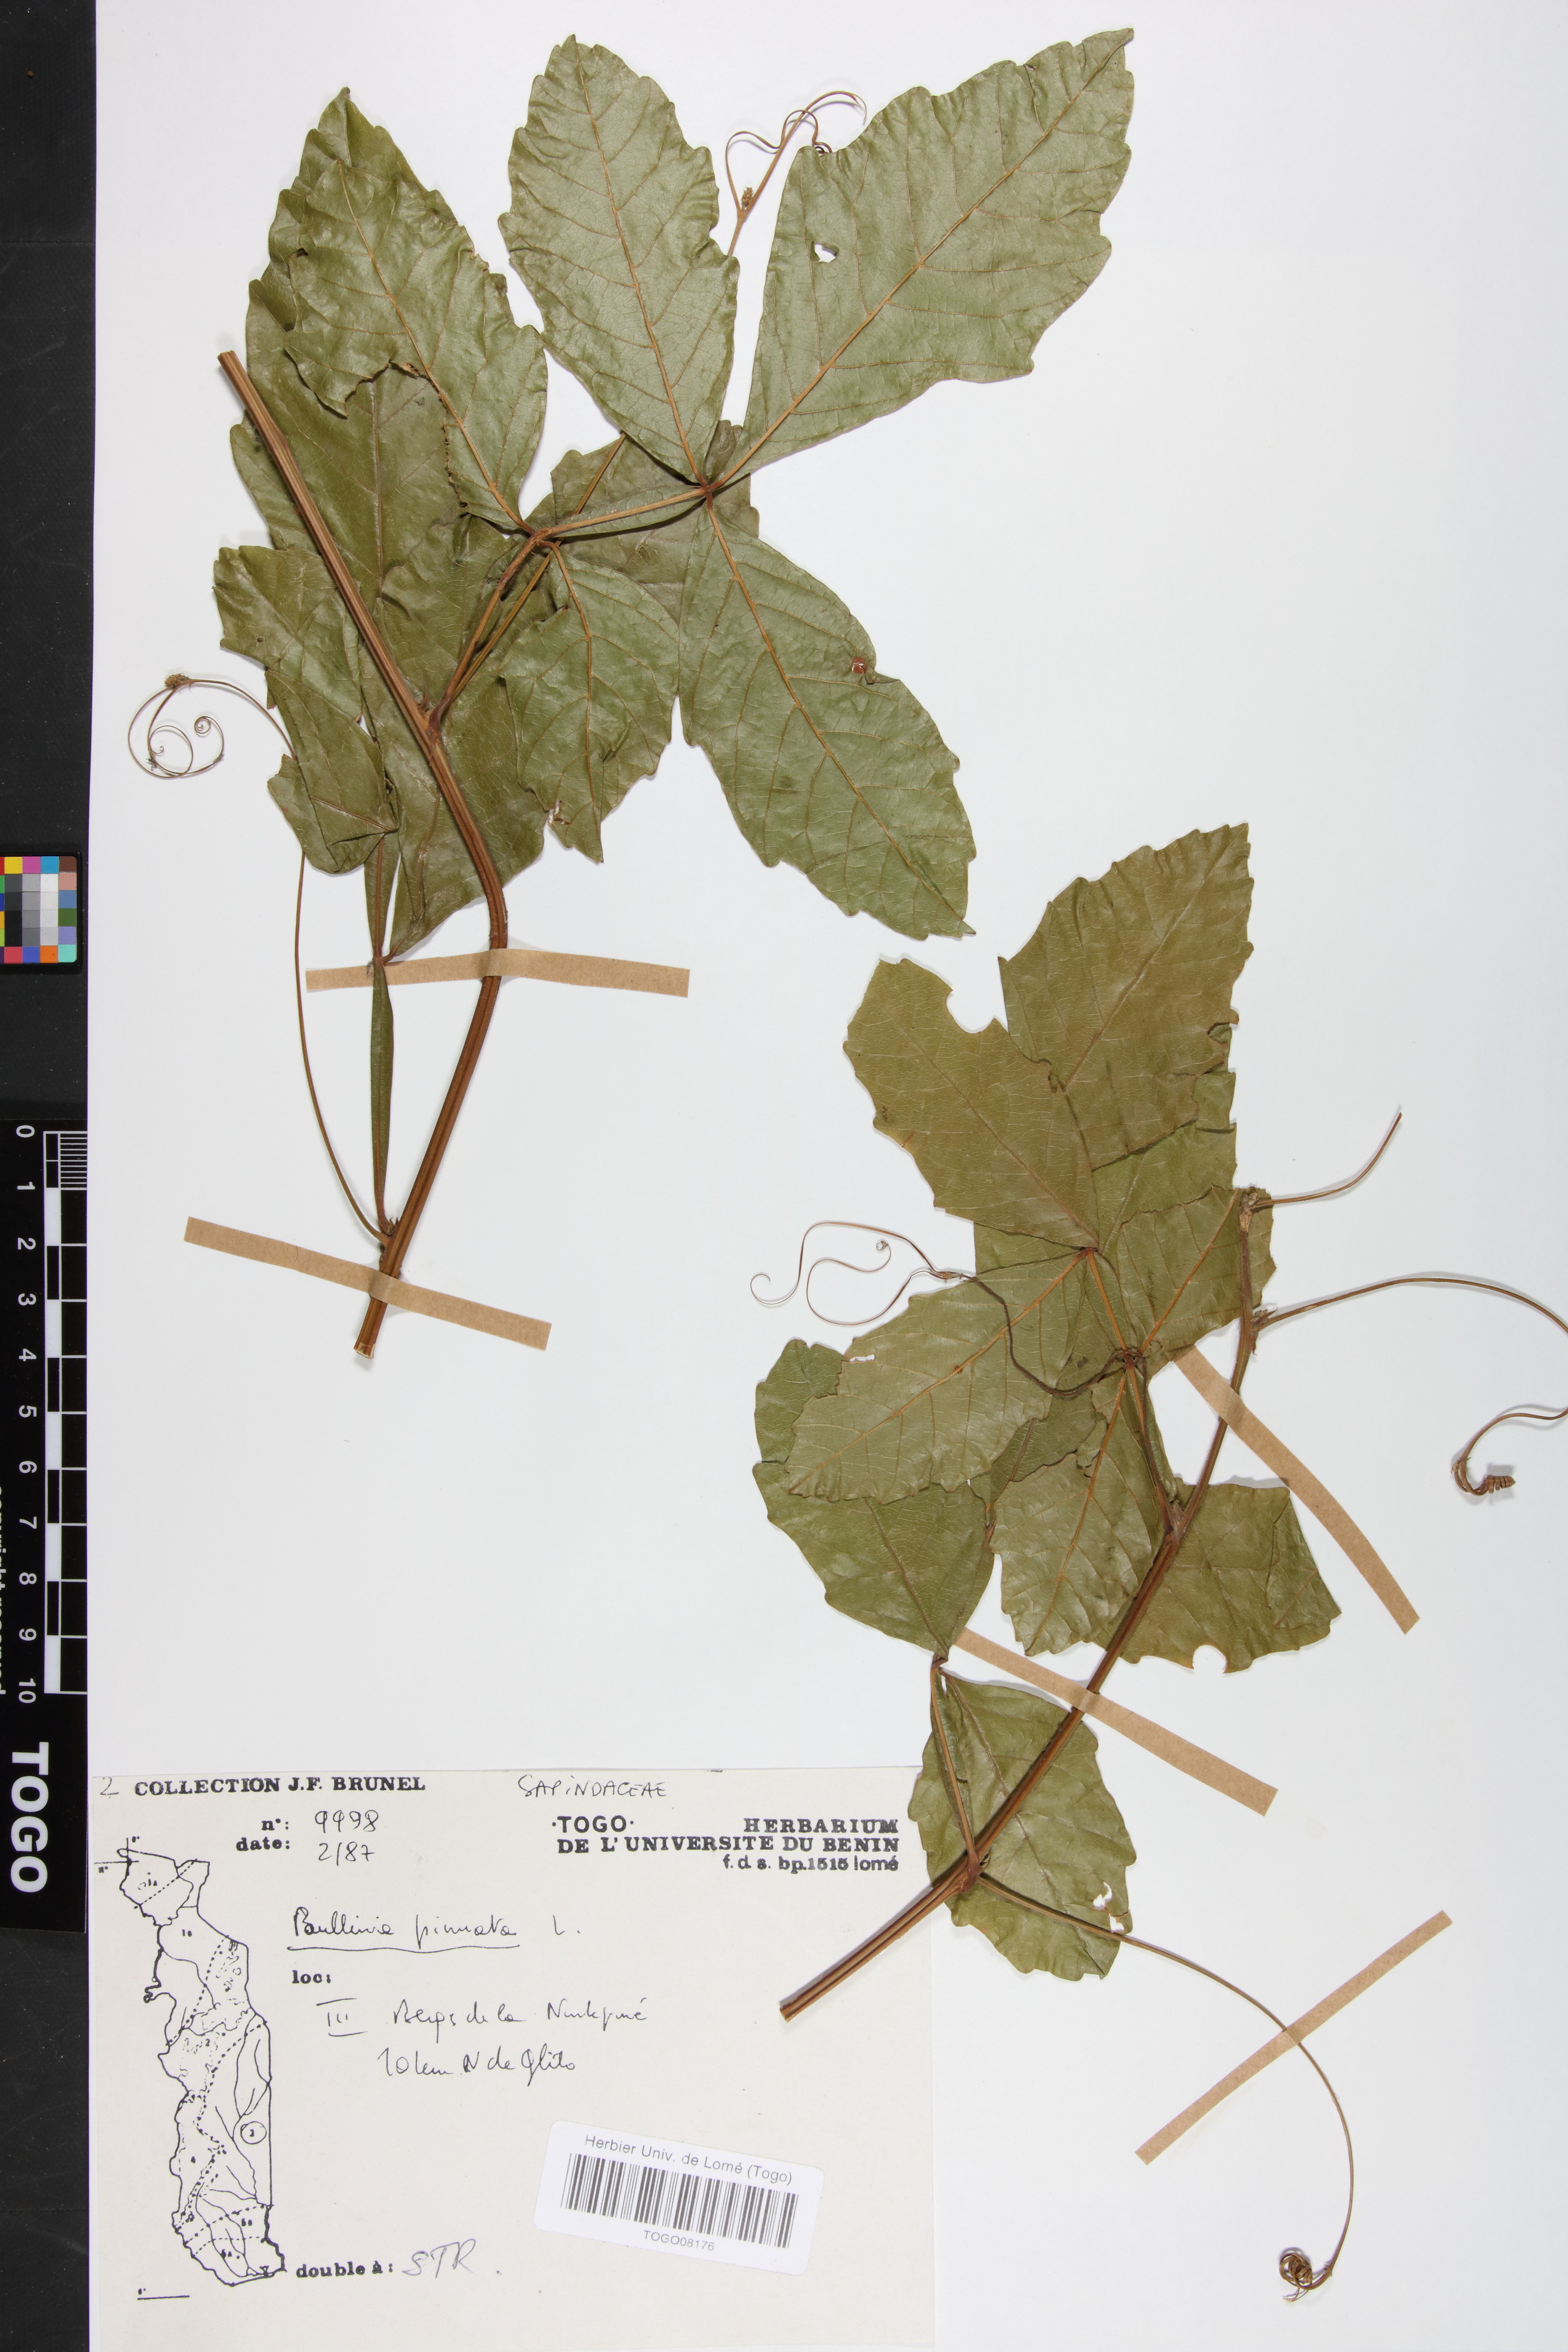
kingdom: Plantae
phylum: Tracheophyta
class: Magnoliopsida
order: Sapindales
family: Sapindaceae
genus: Paullinia
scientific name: Paullinia pinnata
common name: Barbasco
